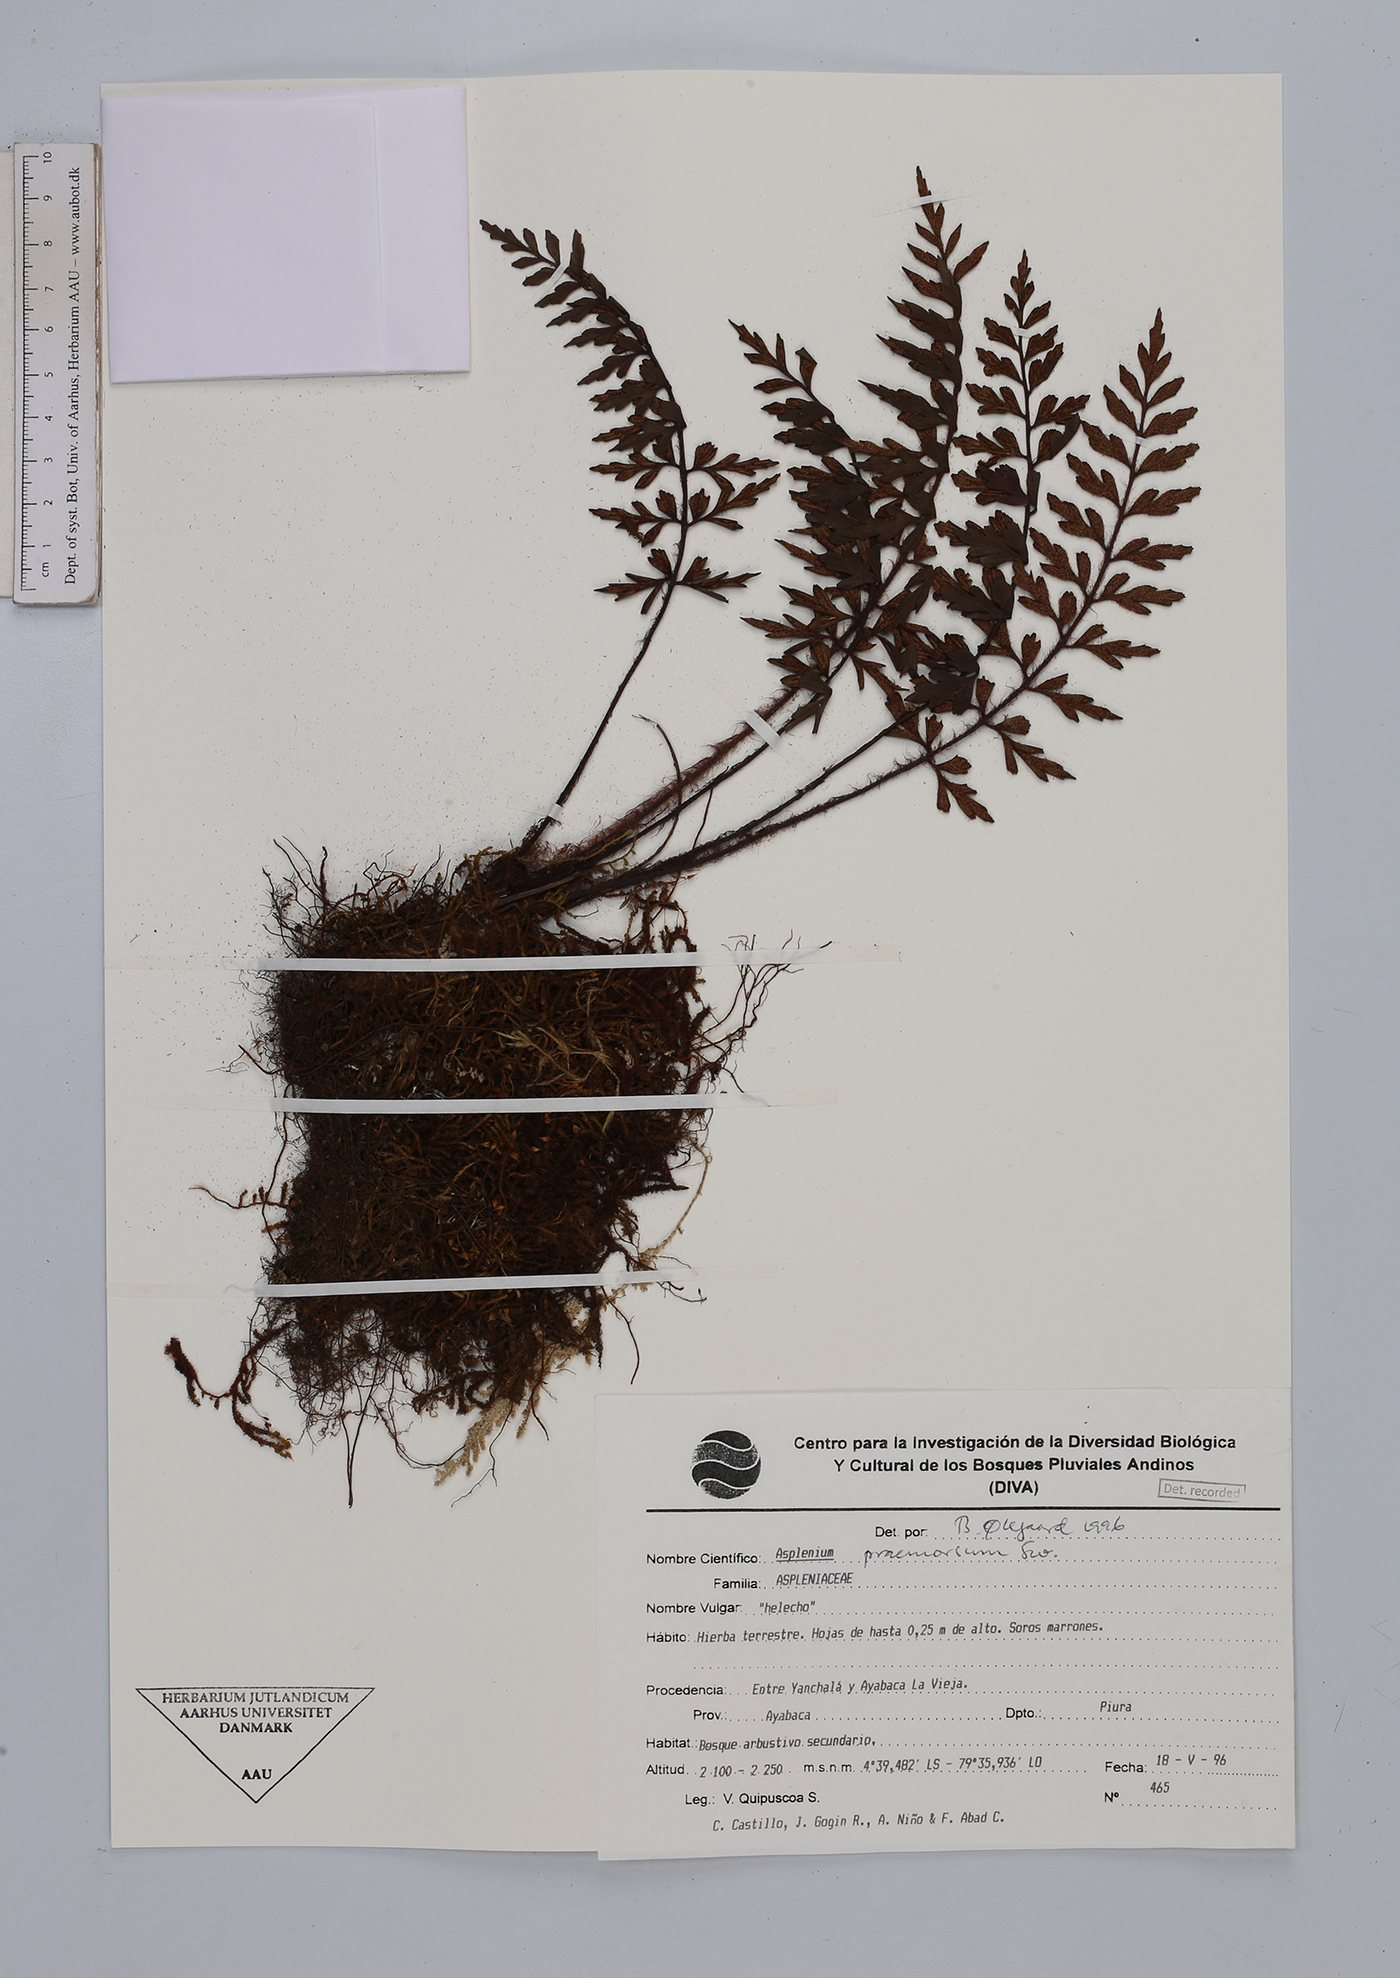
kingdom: Plantae
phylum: Tracheophyta
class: Polypodiopsida
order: Polypodiales
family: Aspleniaceae
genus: Asplenium
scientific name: Asplenium praemorsum
